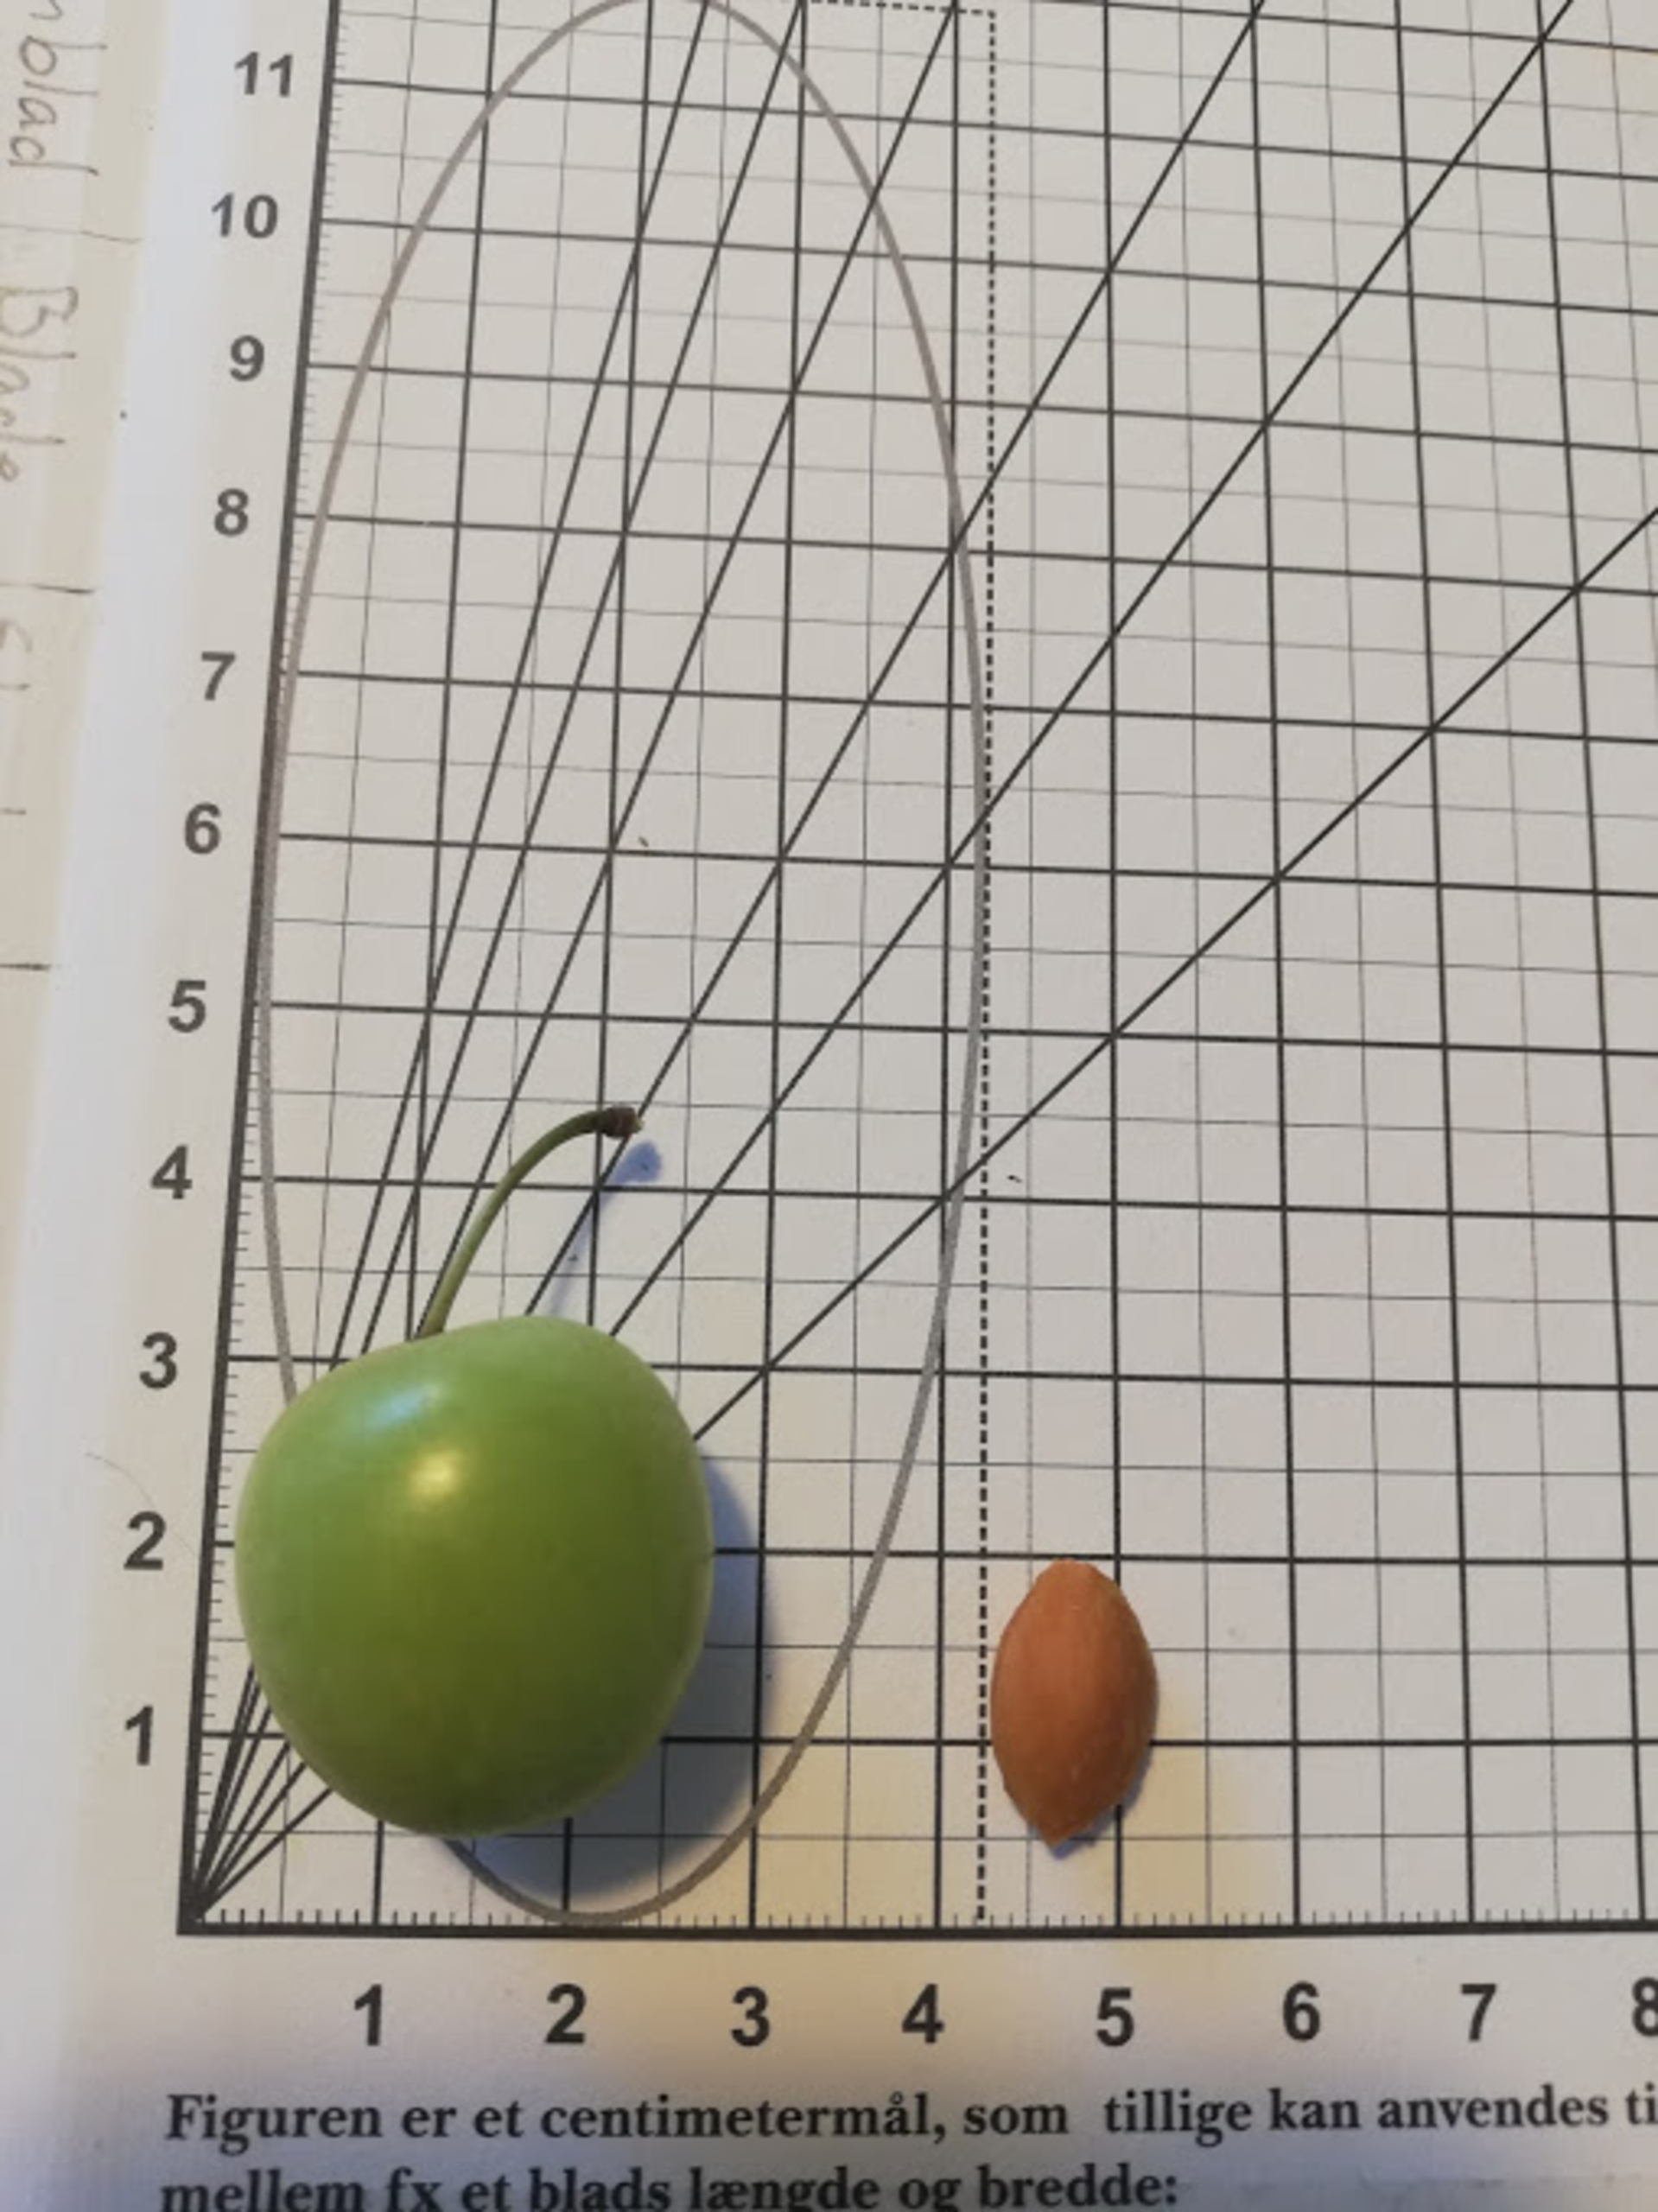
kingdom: Plantae
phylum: Tracheophyta
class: Magnoliopsida
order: Rosales
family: Rosaceae
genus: Prunus
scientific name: Prunus cerasifera
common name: Mirabel
